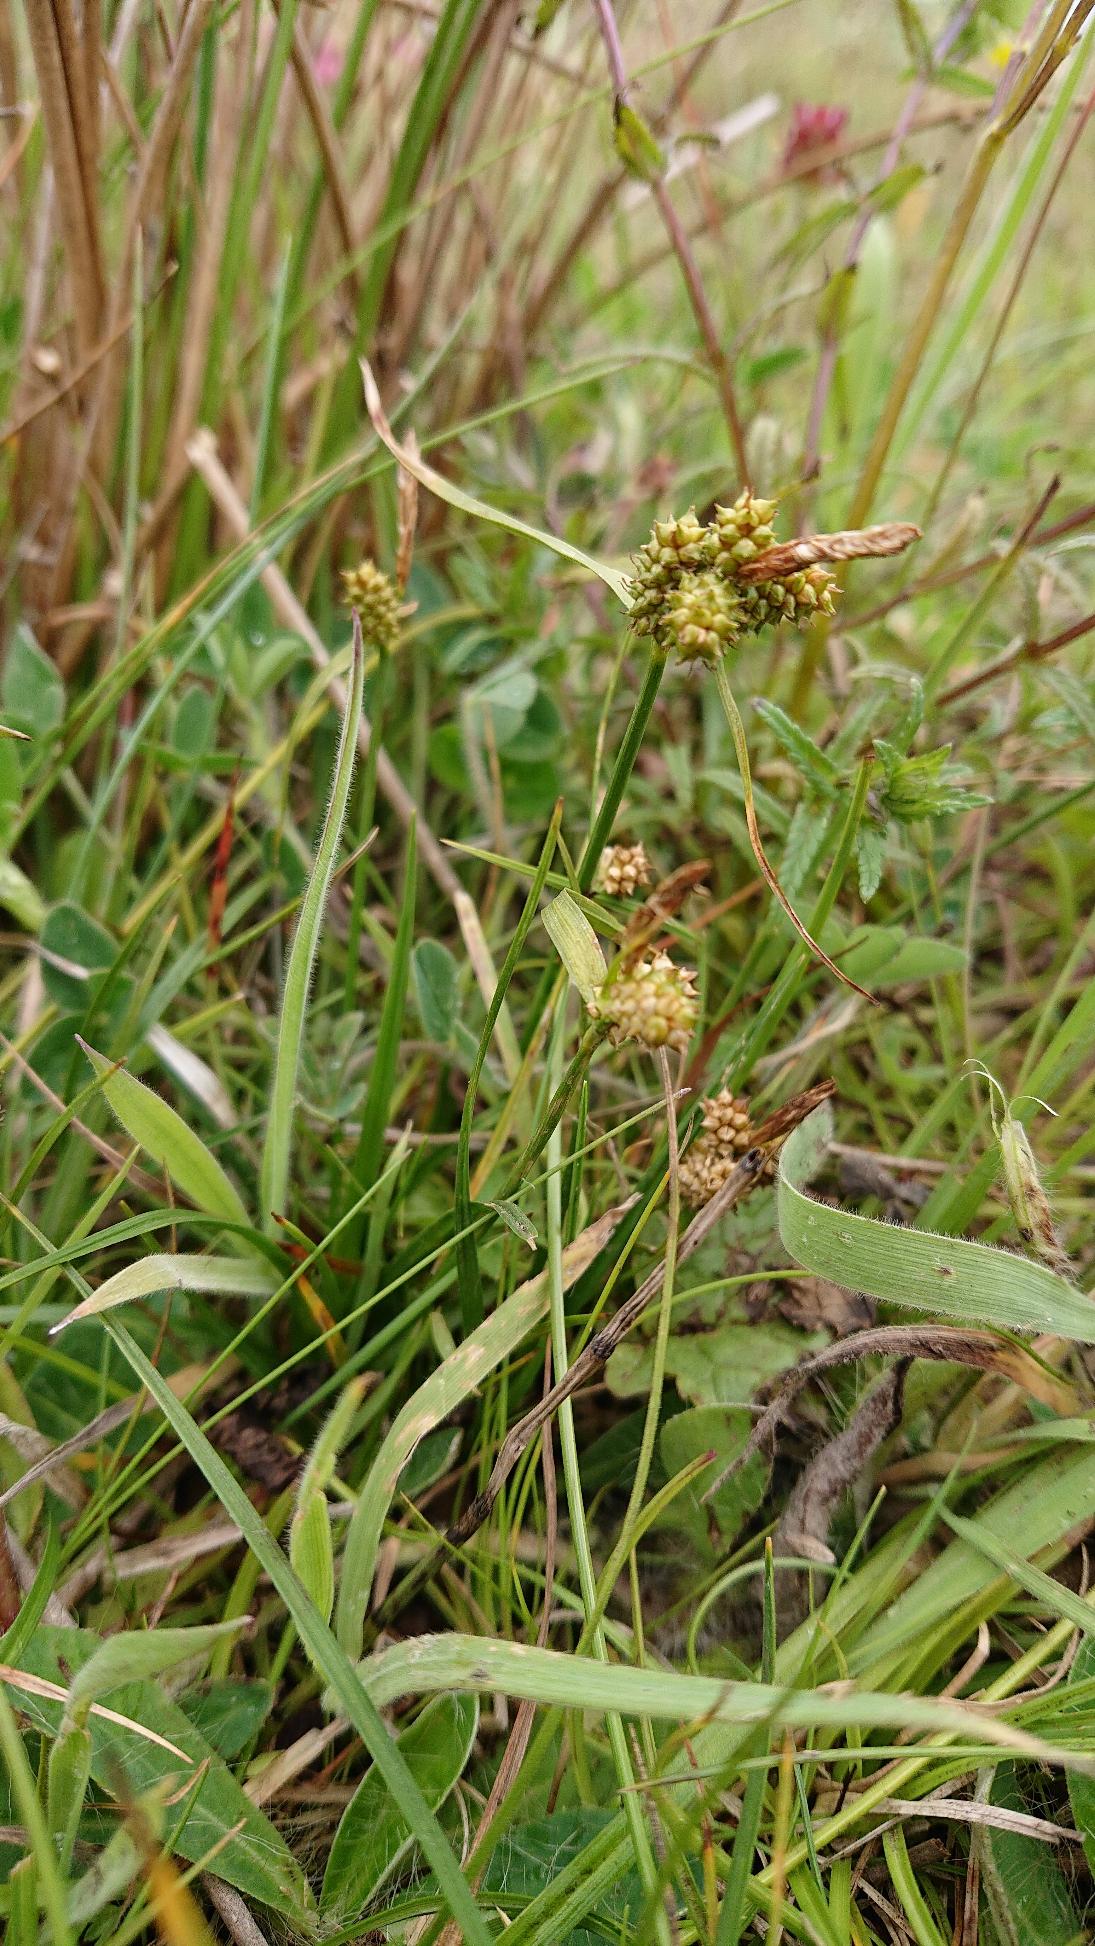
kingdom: Plantae
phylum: Tracheophyta
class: Liliopsida
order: Poales
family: Cyperaceae
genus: Carex
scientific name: Carex oederi
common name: Dværg-star
